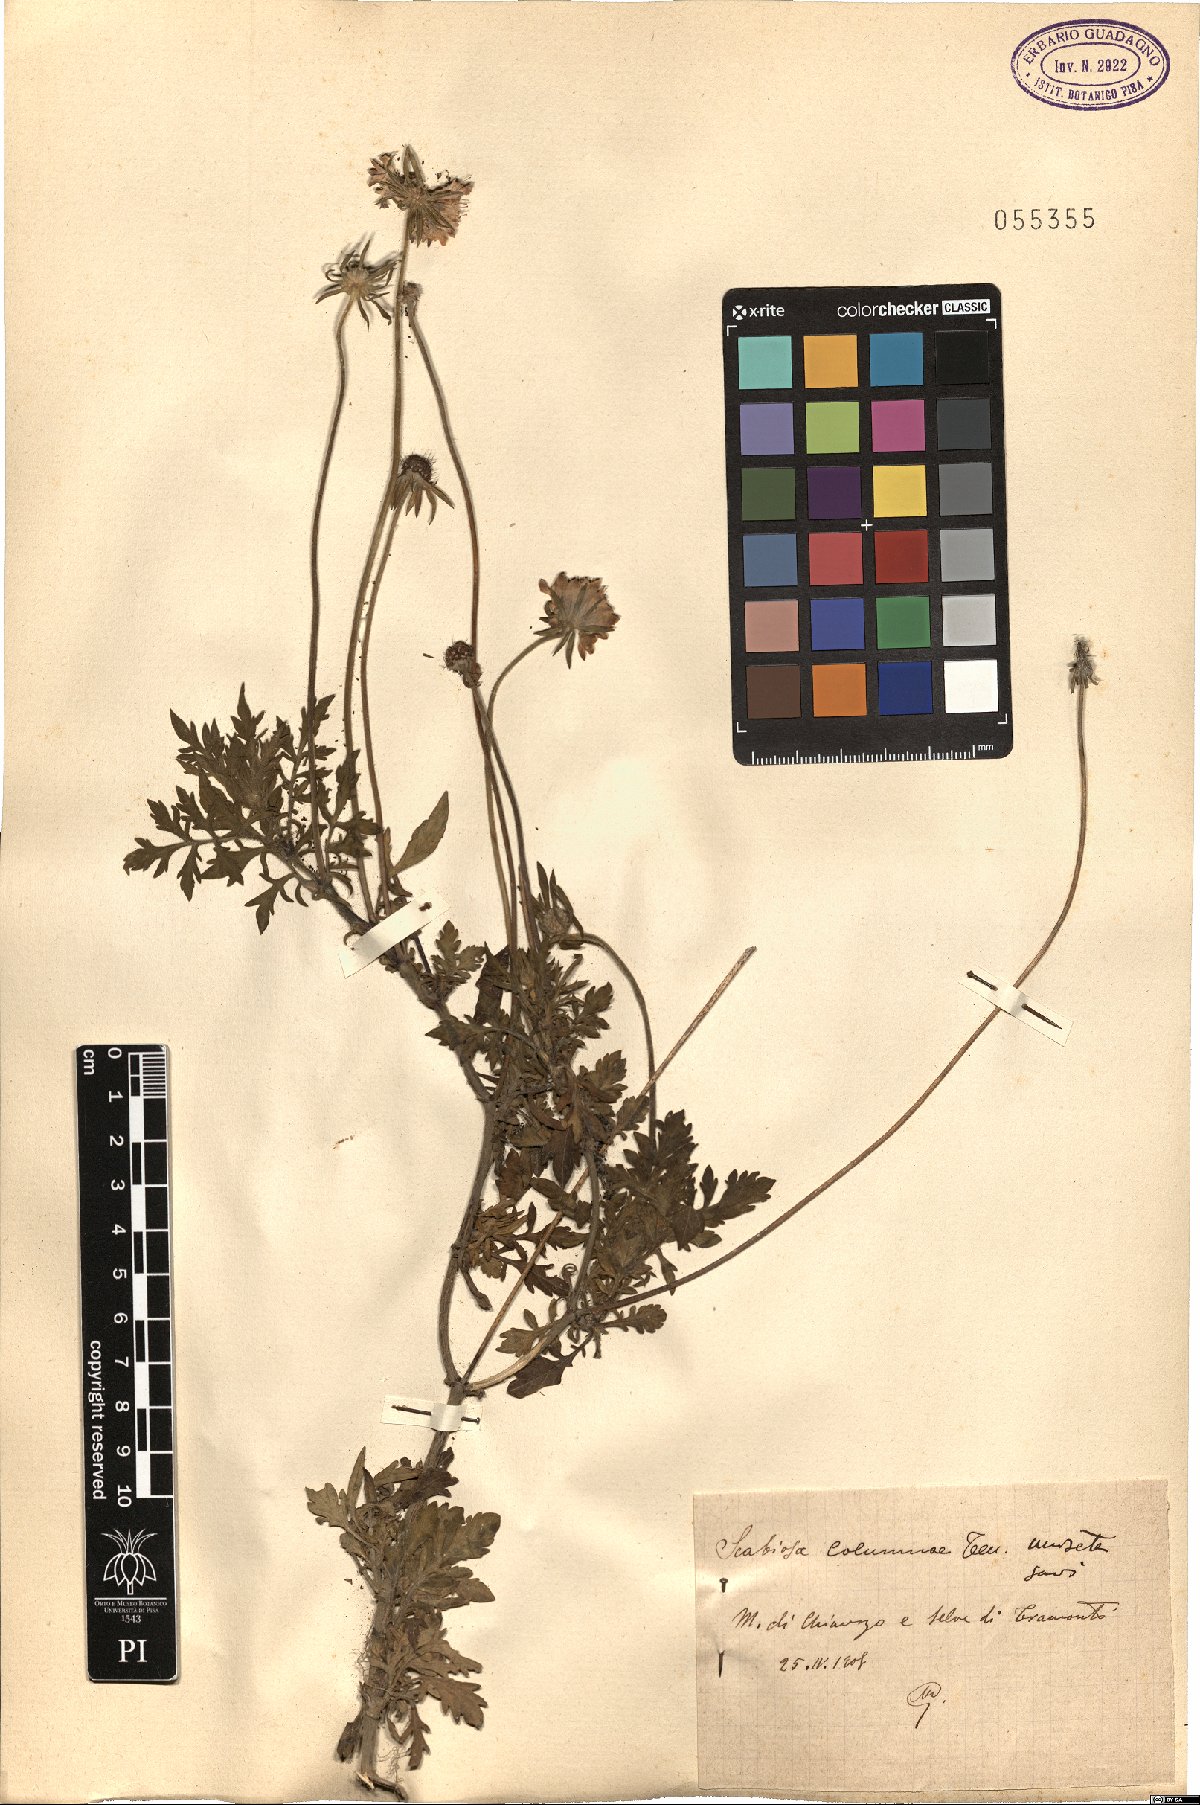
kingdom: Plantae
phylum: Tracheophyta
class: Magnoliopsida
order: Dipsacales
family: Caprifoliaceae
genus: Scabiosa
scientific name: Scabiosa columbaria
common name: Small scabious
